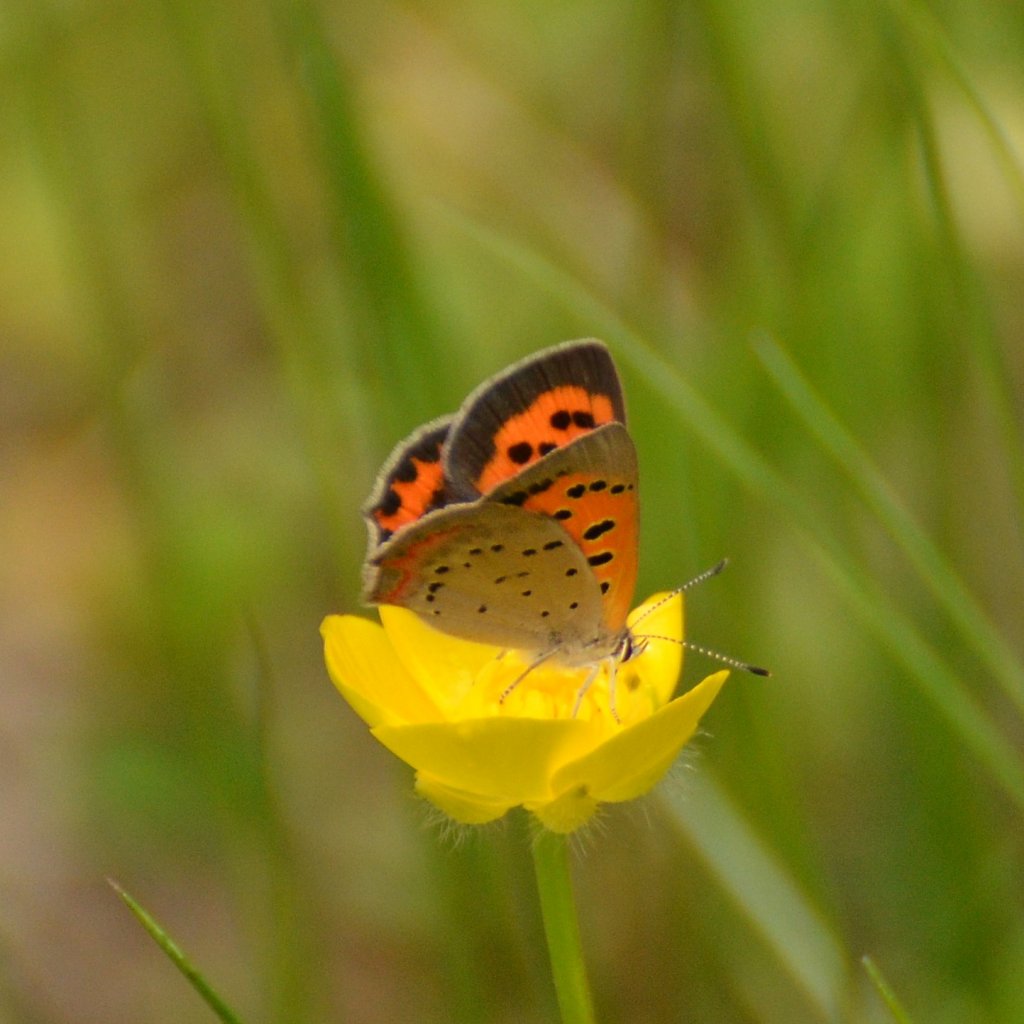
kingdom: Animalia
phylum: Arthropoda
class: Insecta
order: Lepidoptera
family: Lycaenidae
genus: Lycaena
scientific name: Lycaena phlaeas
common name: American Copper
